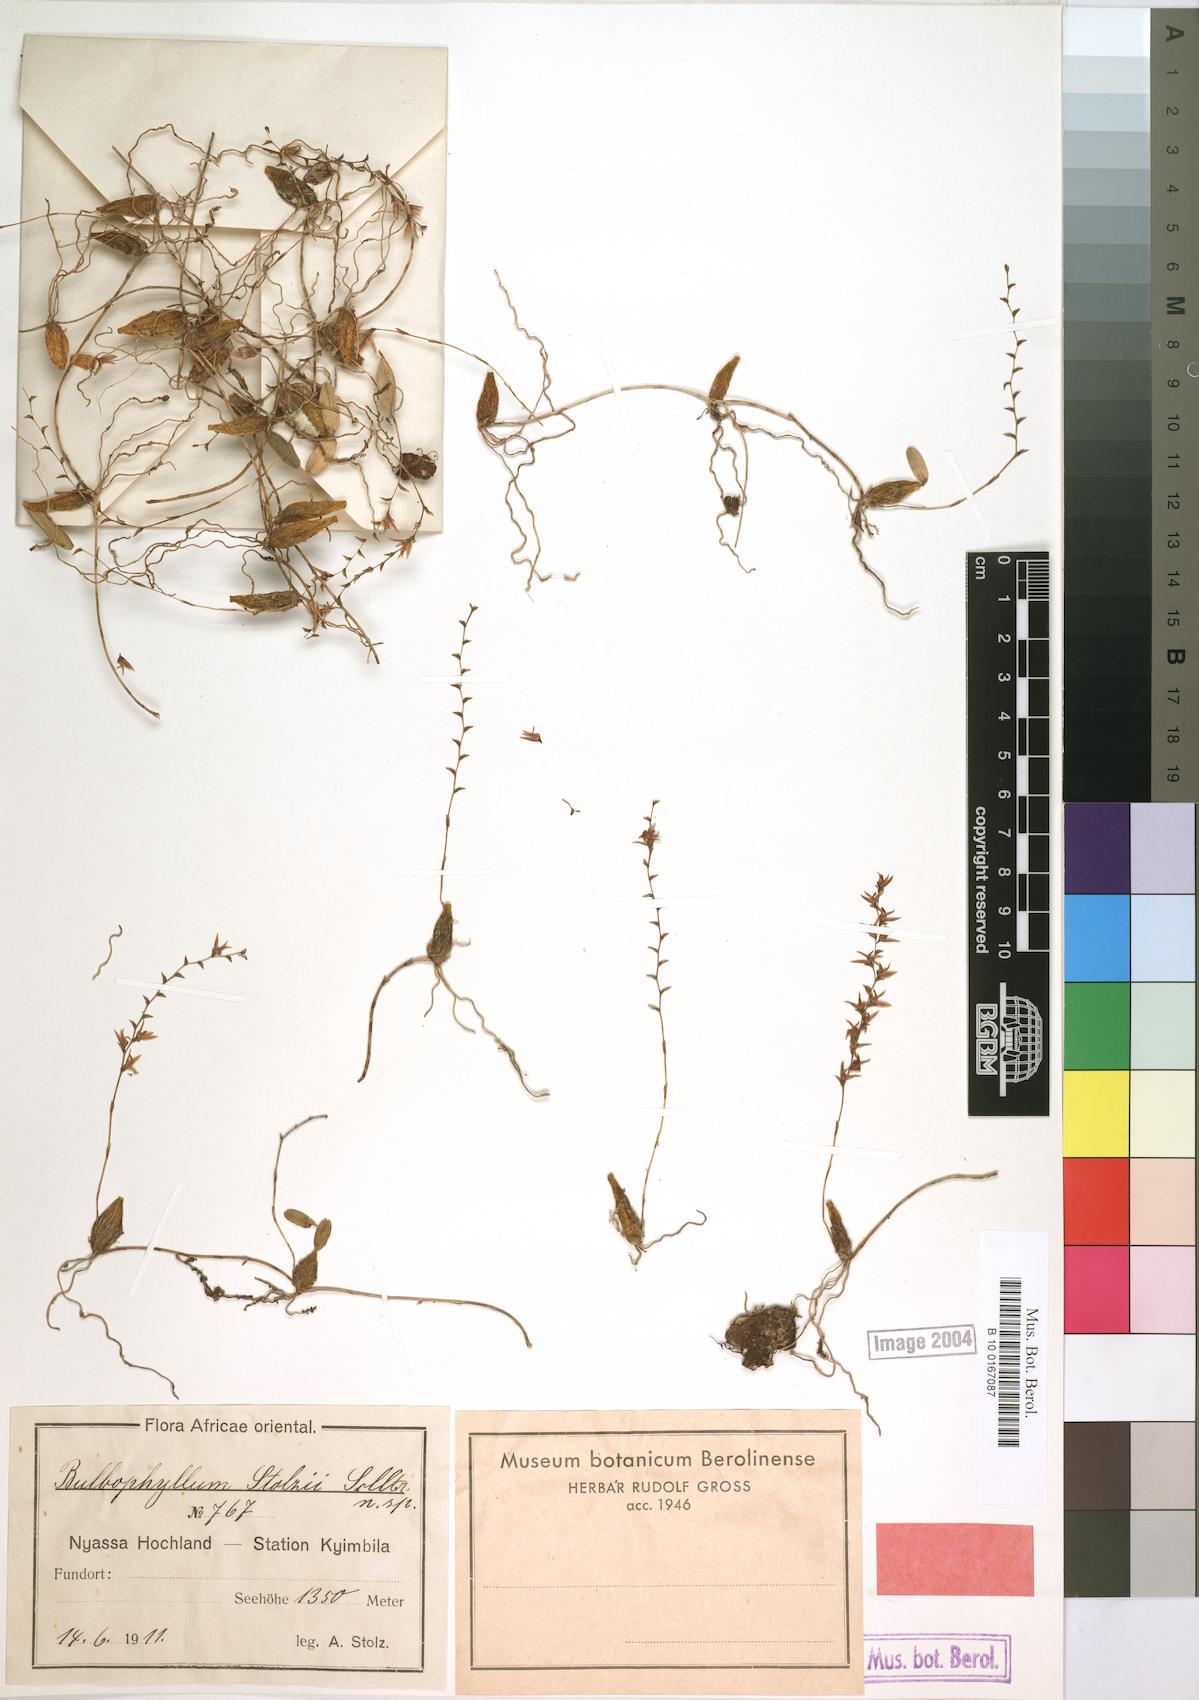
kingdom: Plantae
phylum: Tracheophyta
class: Liliopsida
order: Asparagales
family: Orchidaceae
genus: Bulbophyllum
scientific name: Bulbophyllum stolzii
